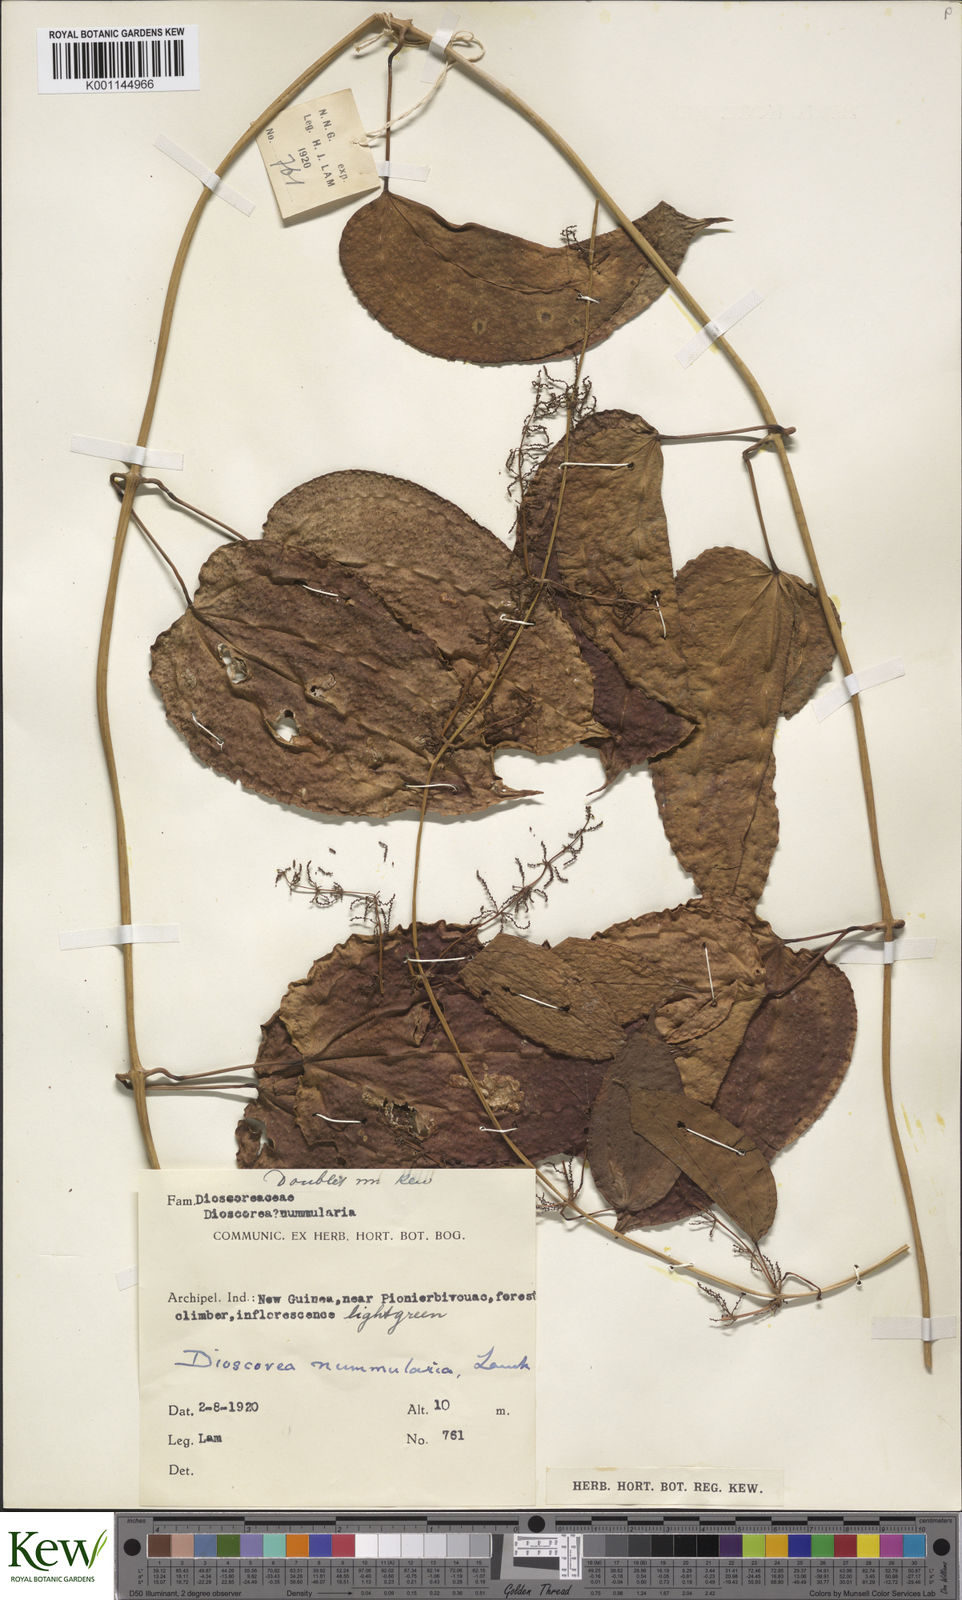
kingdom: Plantae
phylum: Tracheophyta
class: Liliopsida
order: Dioscoreales
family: Dioscoreaceae
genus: Dioscorea
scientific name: Dioscorea nummularia
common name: Pacific yam
